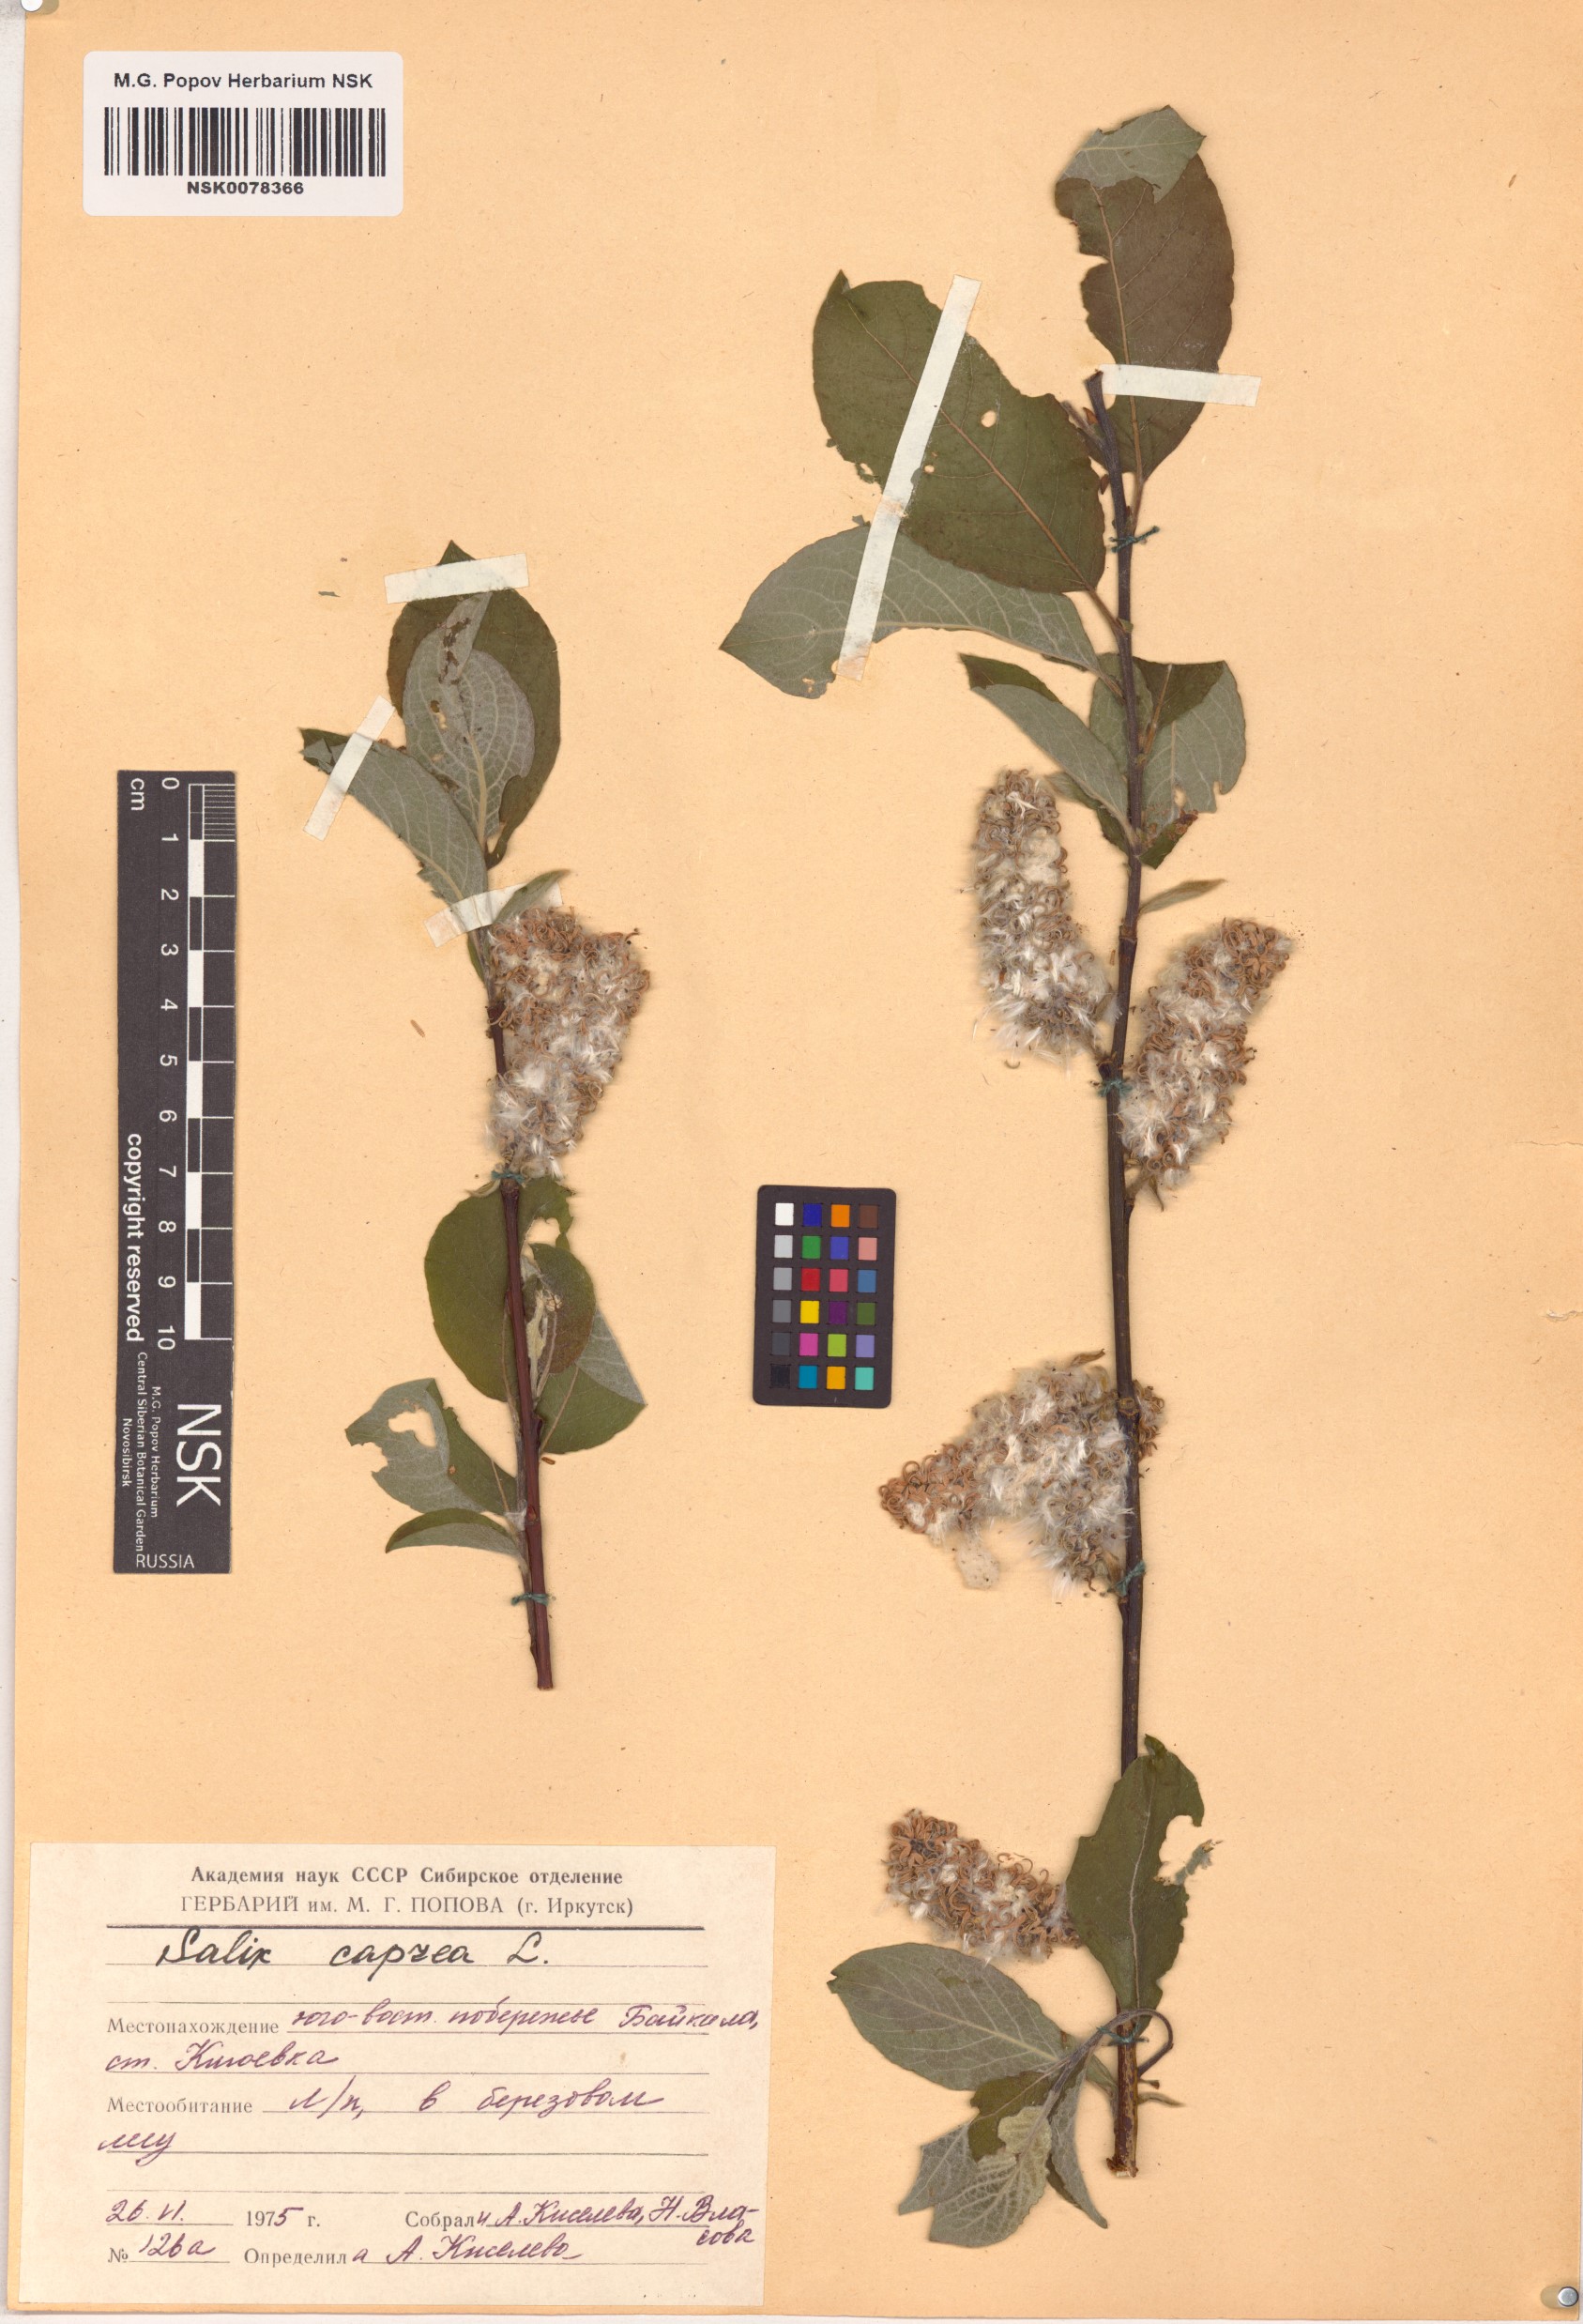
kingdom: Plantae
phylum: Tracheophyta
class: Magnoliopsida
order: Malpighiales
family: Salicaceae
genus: Salix
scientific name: Salix caprea
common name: Goat willow
